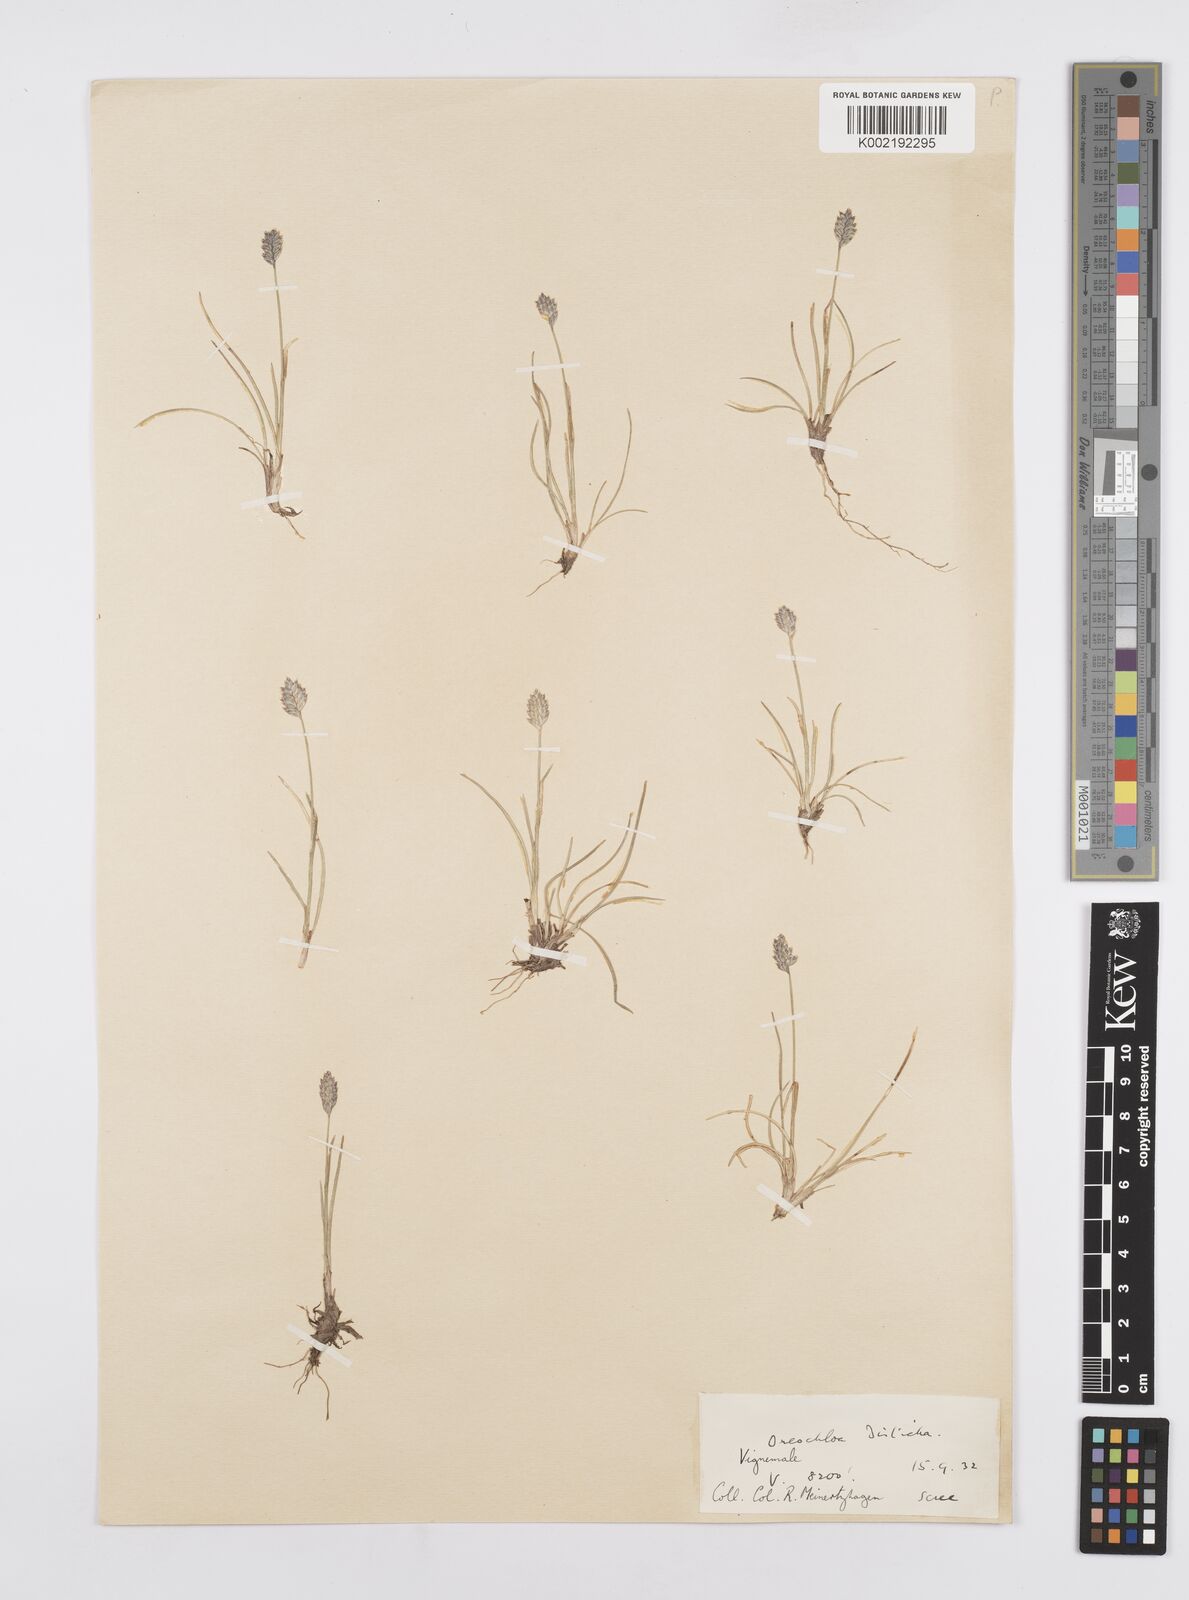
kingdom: Plantae
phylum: Tracheophyta
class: Liliopsida
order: Poales
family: Poaceae
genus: Oreochloa
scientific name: Oreochloa disticha
